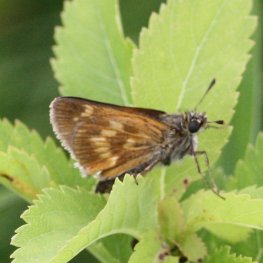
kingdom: Animalia
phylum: Arthropoda
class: Insecta
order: Lepidoptera
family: Hesperiidae
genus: Polites
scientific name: Polites
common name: Long Dash Skipper
